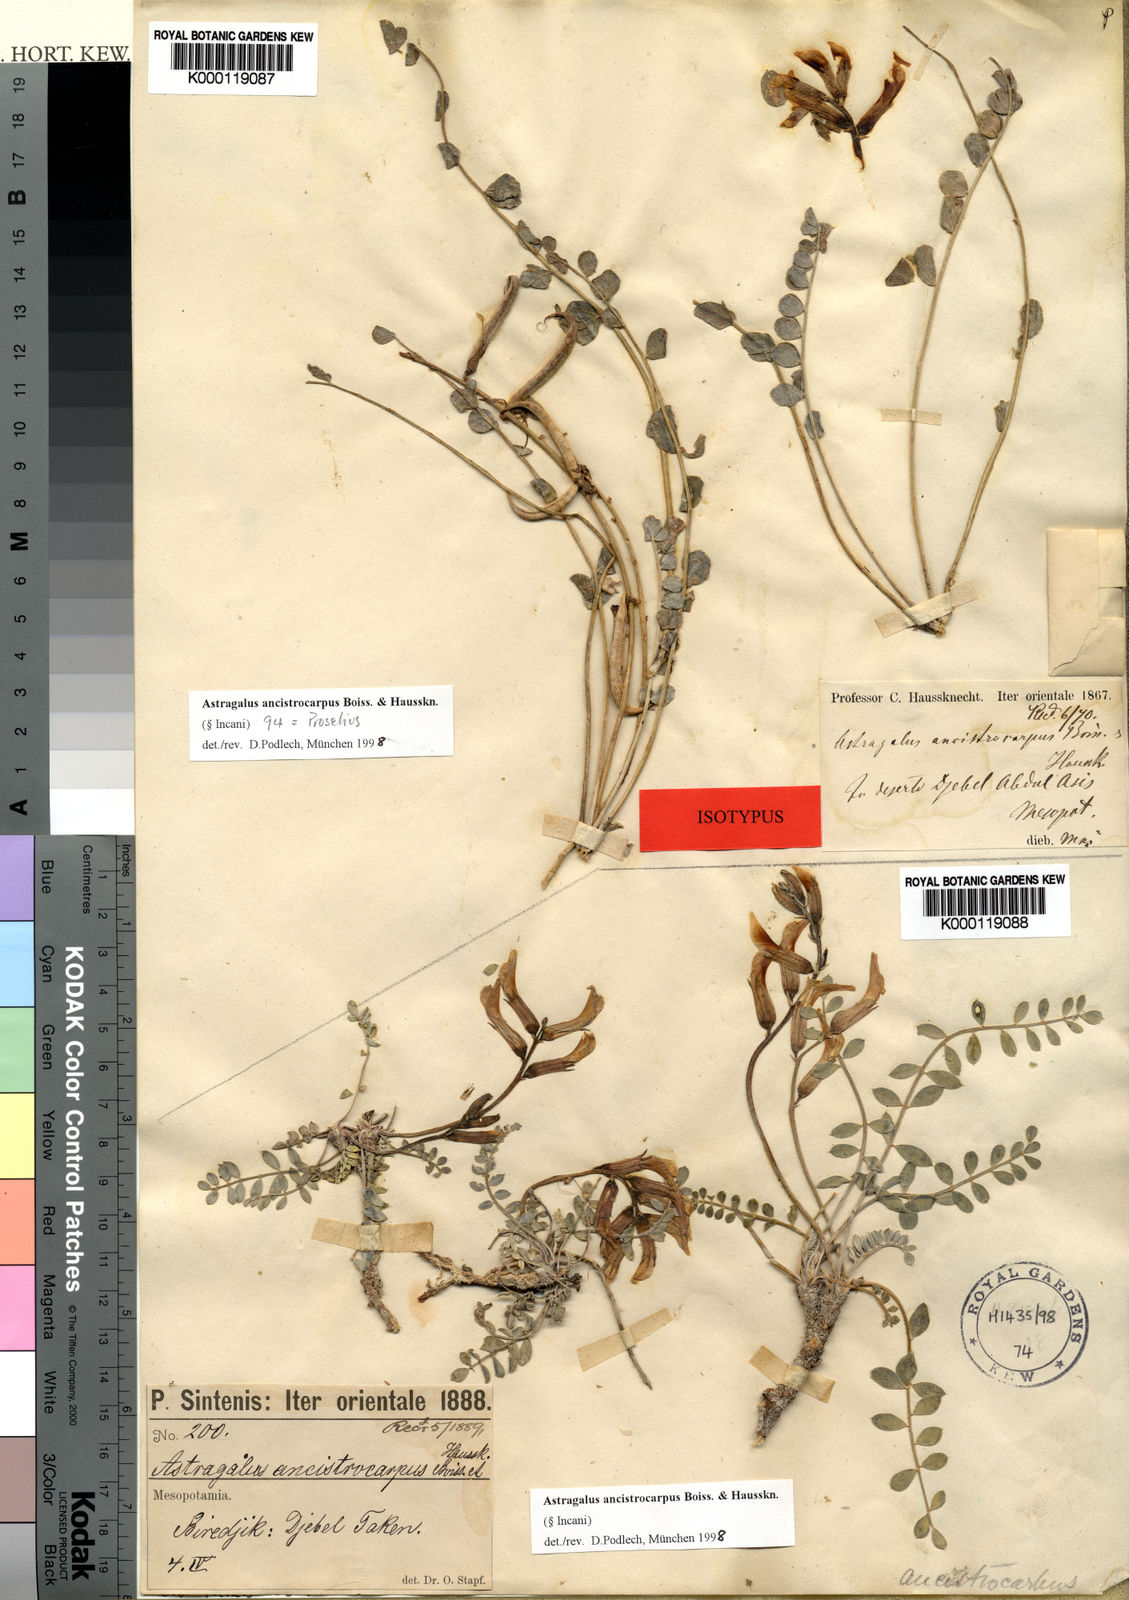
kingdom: Plantae
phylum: Tracheophyta
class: Magnoliopsida
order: Fabales
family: Fabaceae
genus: Astragalus
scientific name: Astragalus ancistrocarpus
